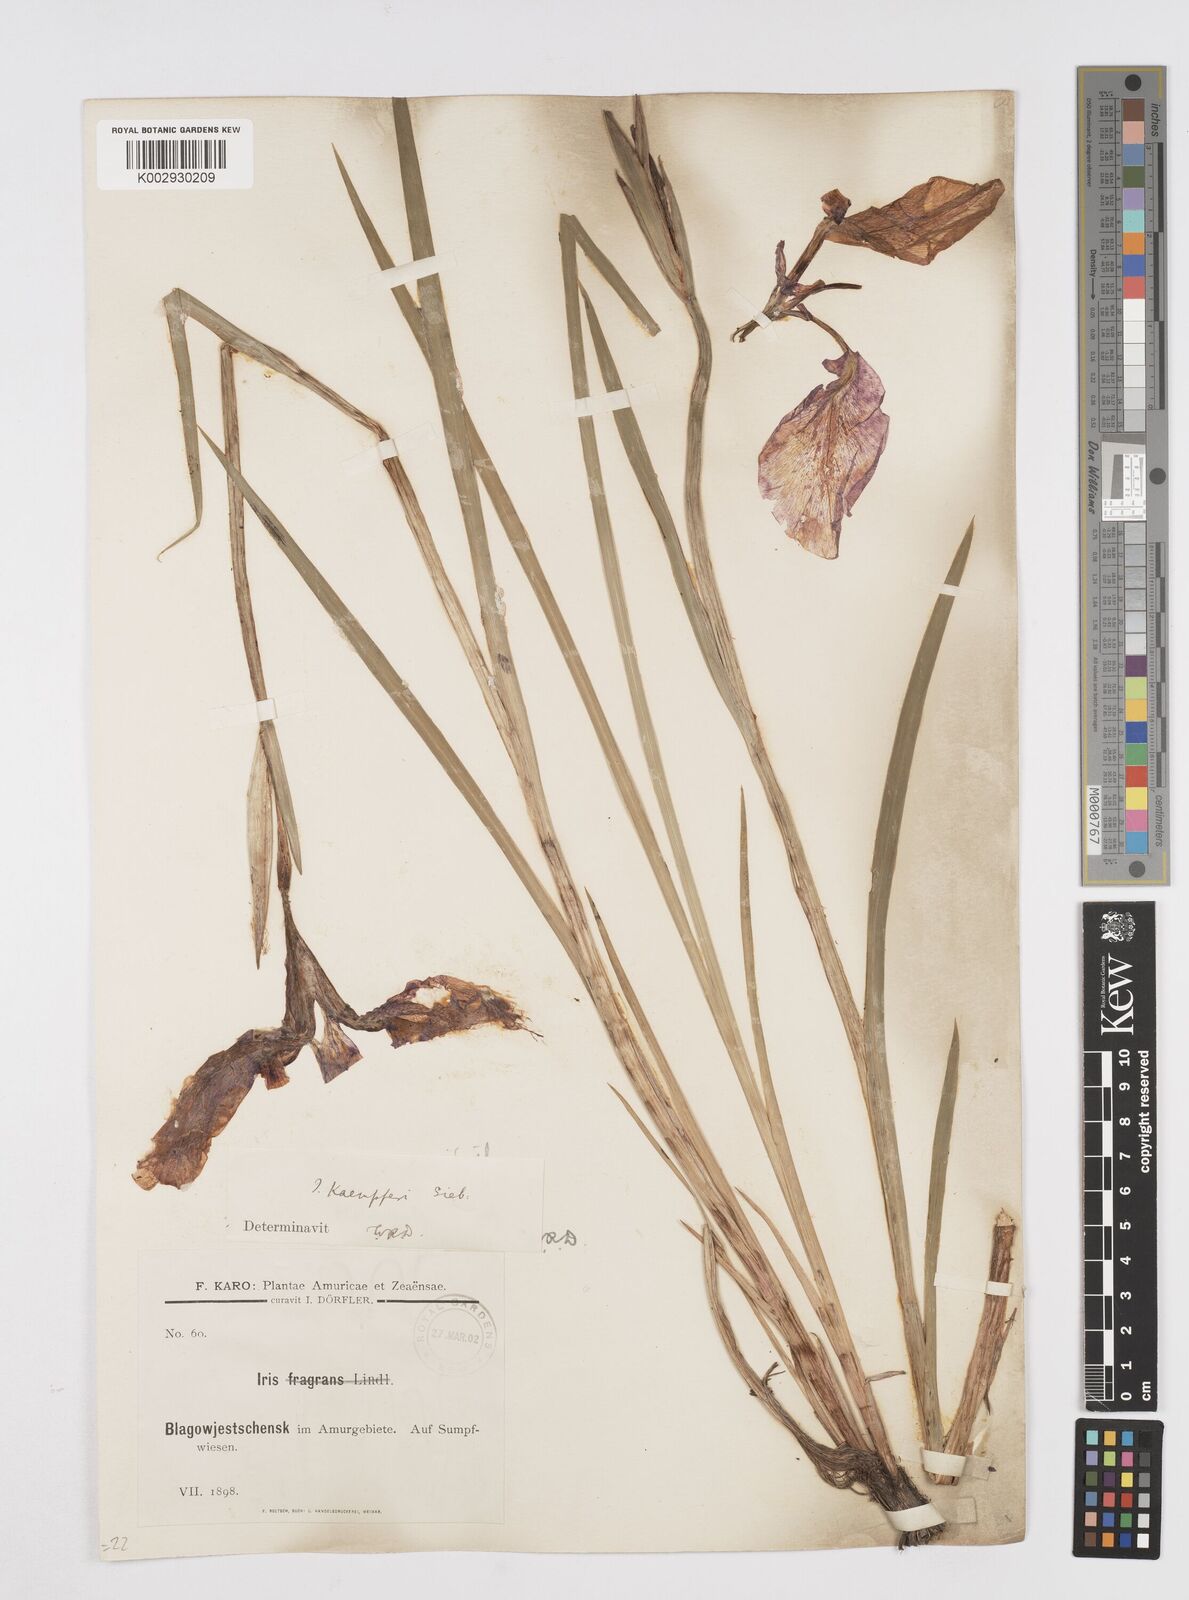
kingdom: Plantae
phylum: Tracheophyta
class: Liliopsida
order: Asparagales
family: Iridaceae
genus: Iris
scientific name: Iris ensata
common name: Beaked iris
